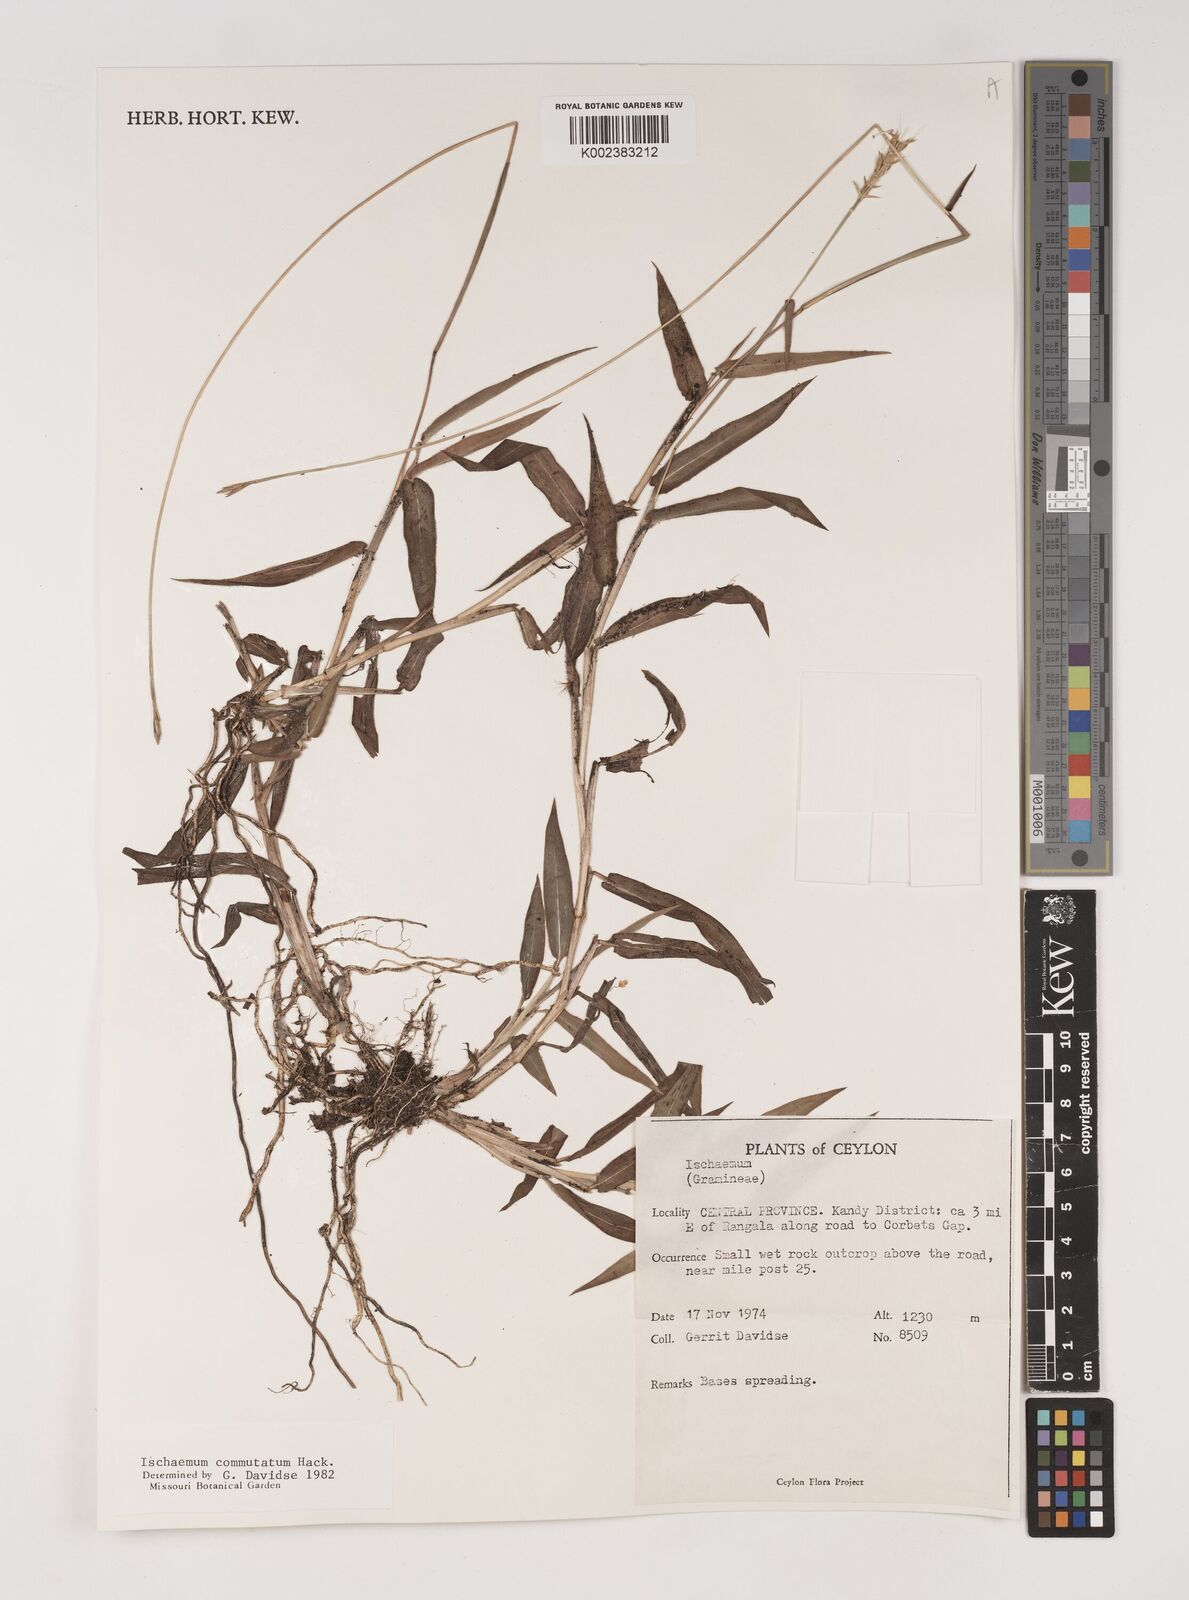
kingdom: Plantae
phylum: Tracheophyta
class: Liliopsida
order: Poales
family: Poaceae
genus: Ischaemum
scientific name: Ischaemum commutatum
